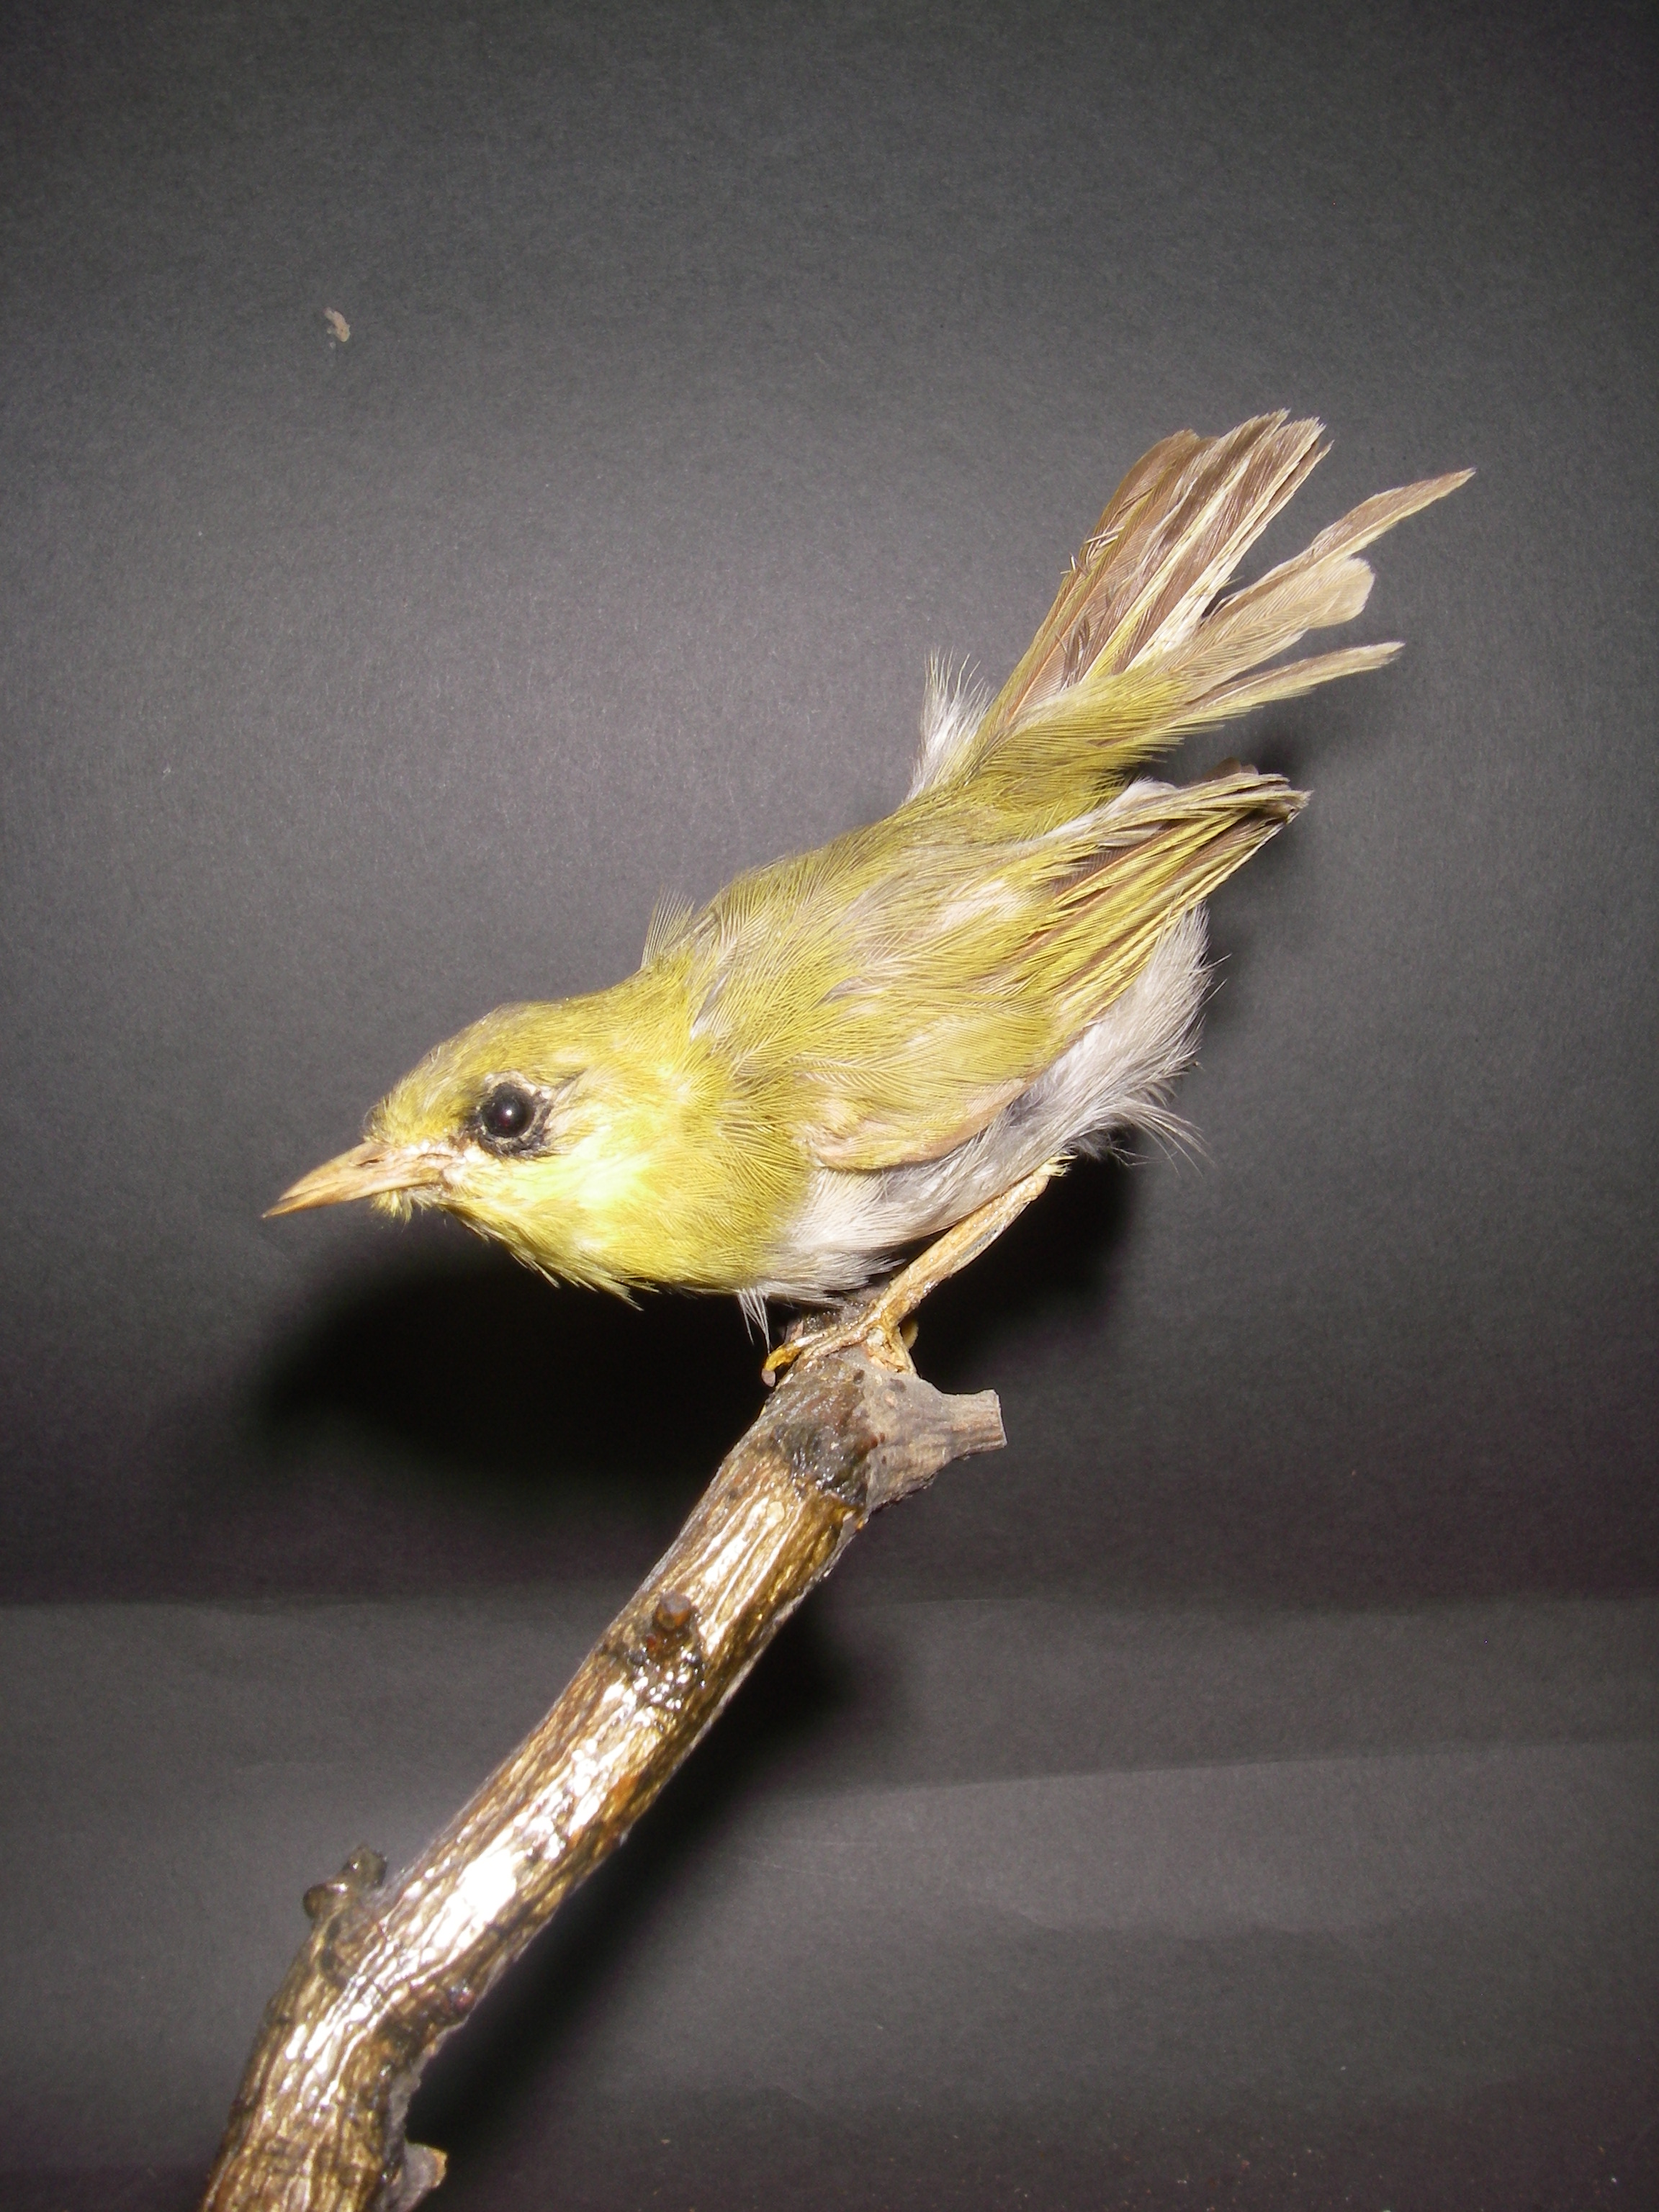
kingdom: Animalia
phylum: Chordata
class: Aves
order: Passeriformes
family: Zosteropidae
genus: Zosterops
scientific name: Zosterops palpebrosus
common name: Oriental white-eye
